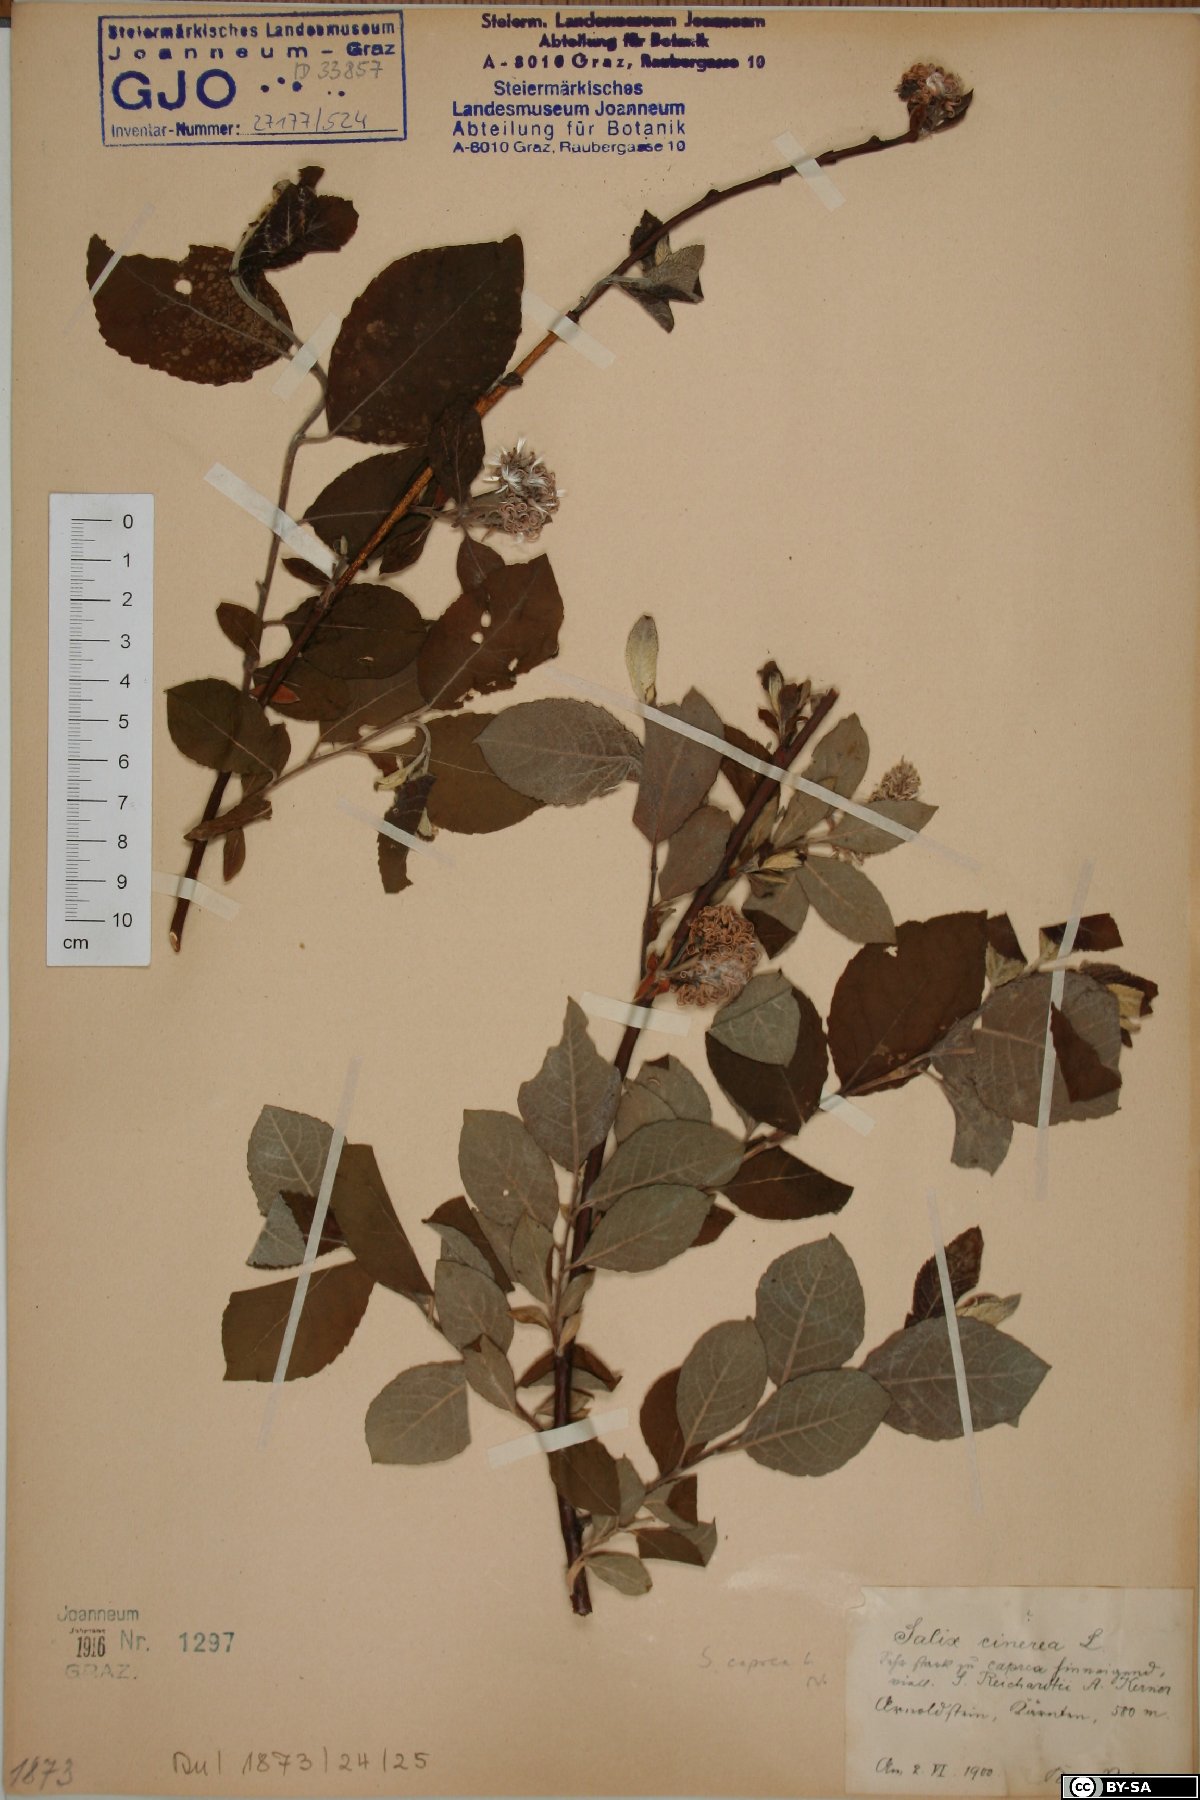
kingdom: Plantae
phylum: Tracheophyta
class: Magnoliopsida
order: Malpighiales
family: Salicaceae
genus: Salix
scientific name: Salix caprea
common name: Goat willow
